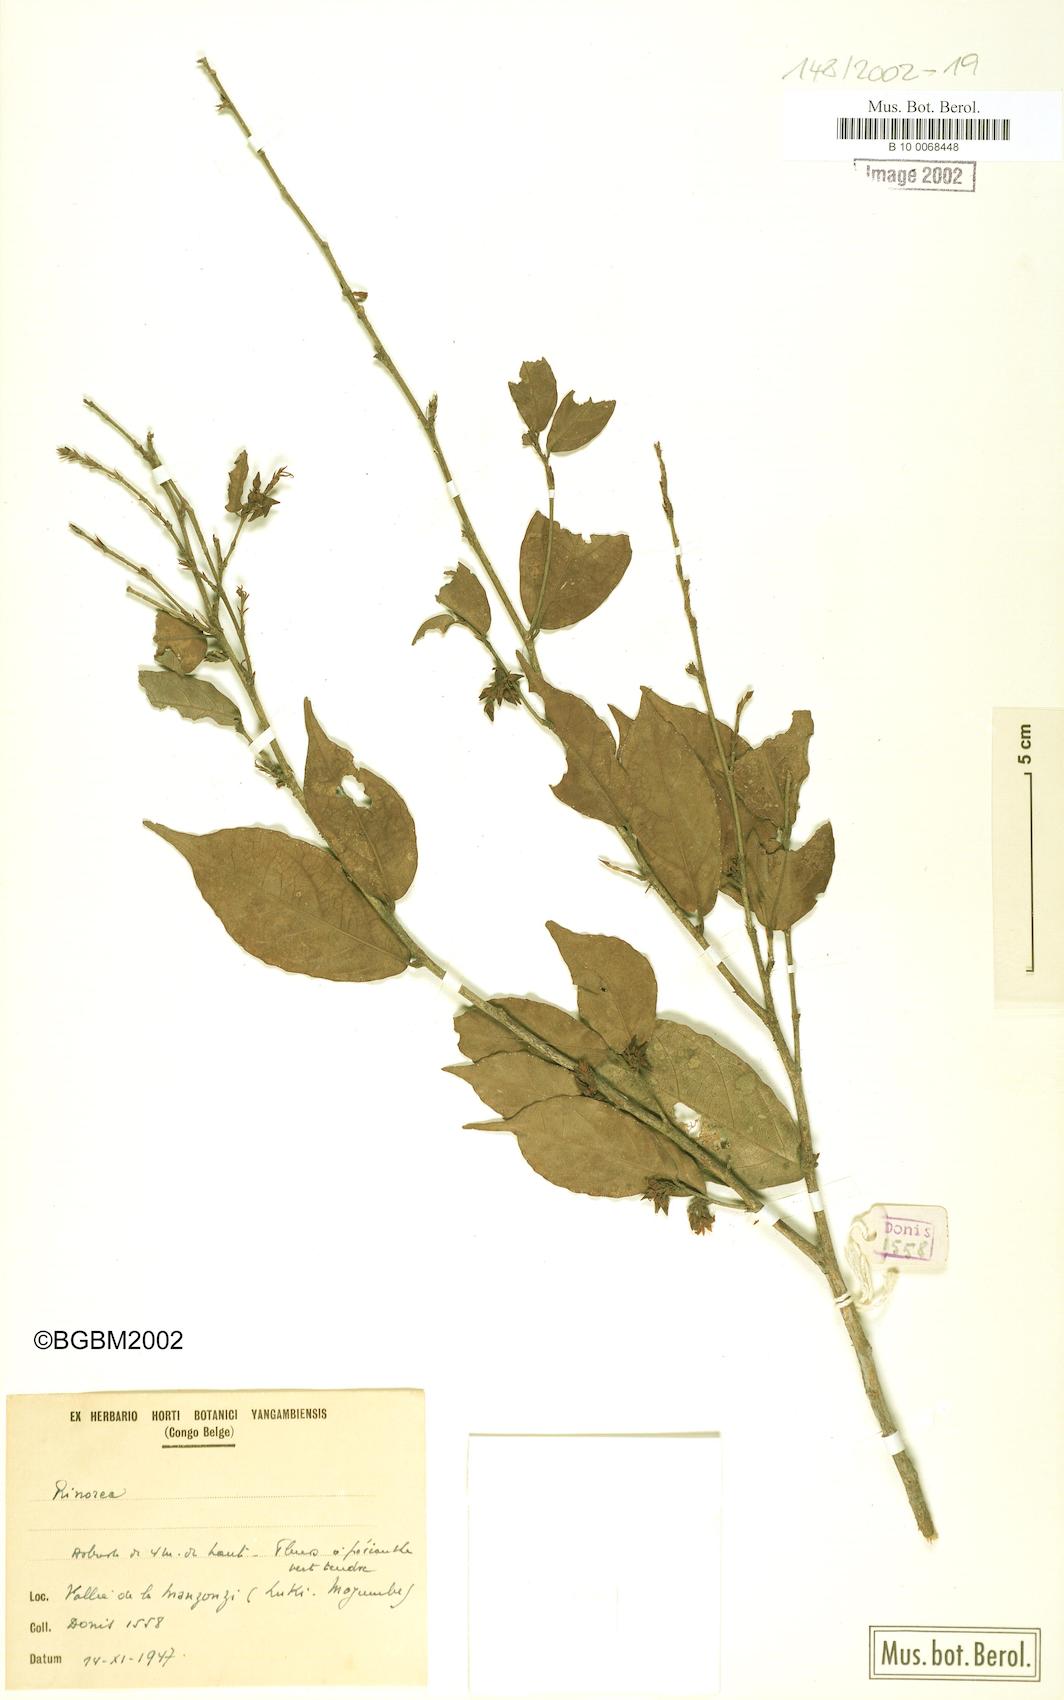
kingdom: Plantae
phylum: Tracheophyta
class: Magnoliopsida
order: Malpighiales
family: Violaceae
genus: Rinorea
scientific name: Rinorea
